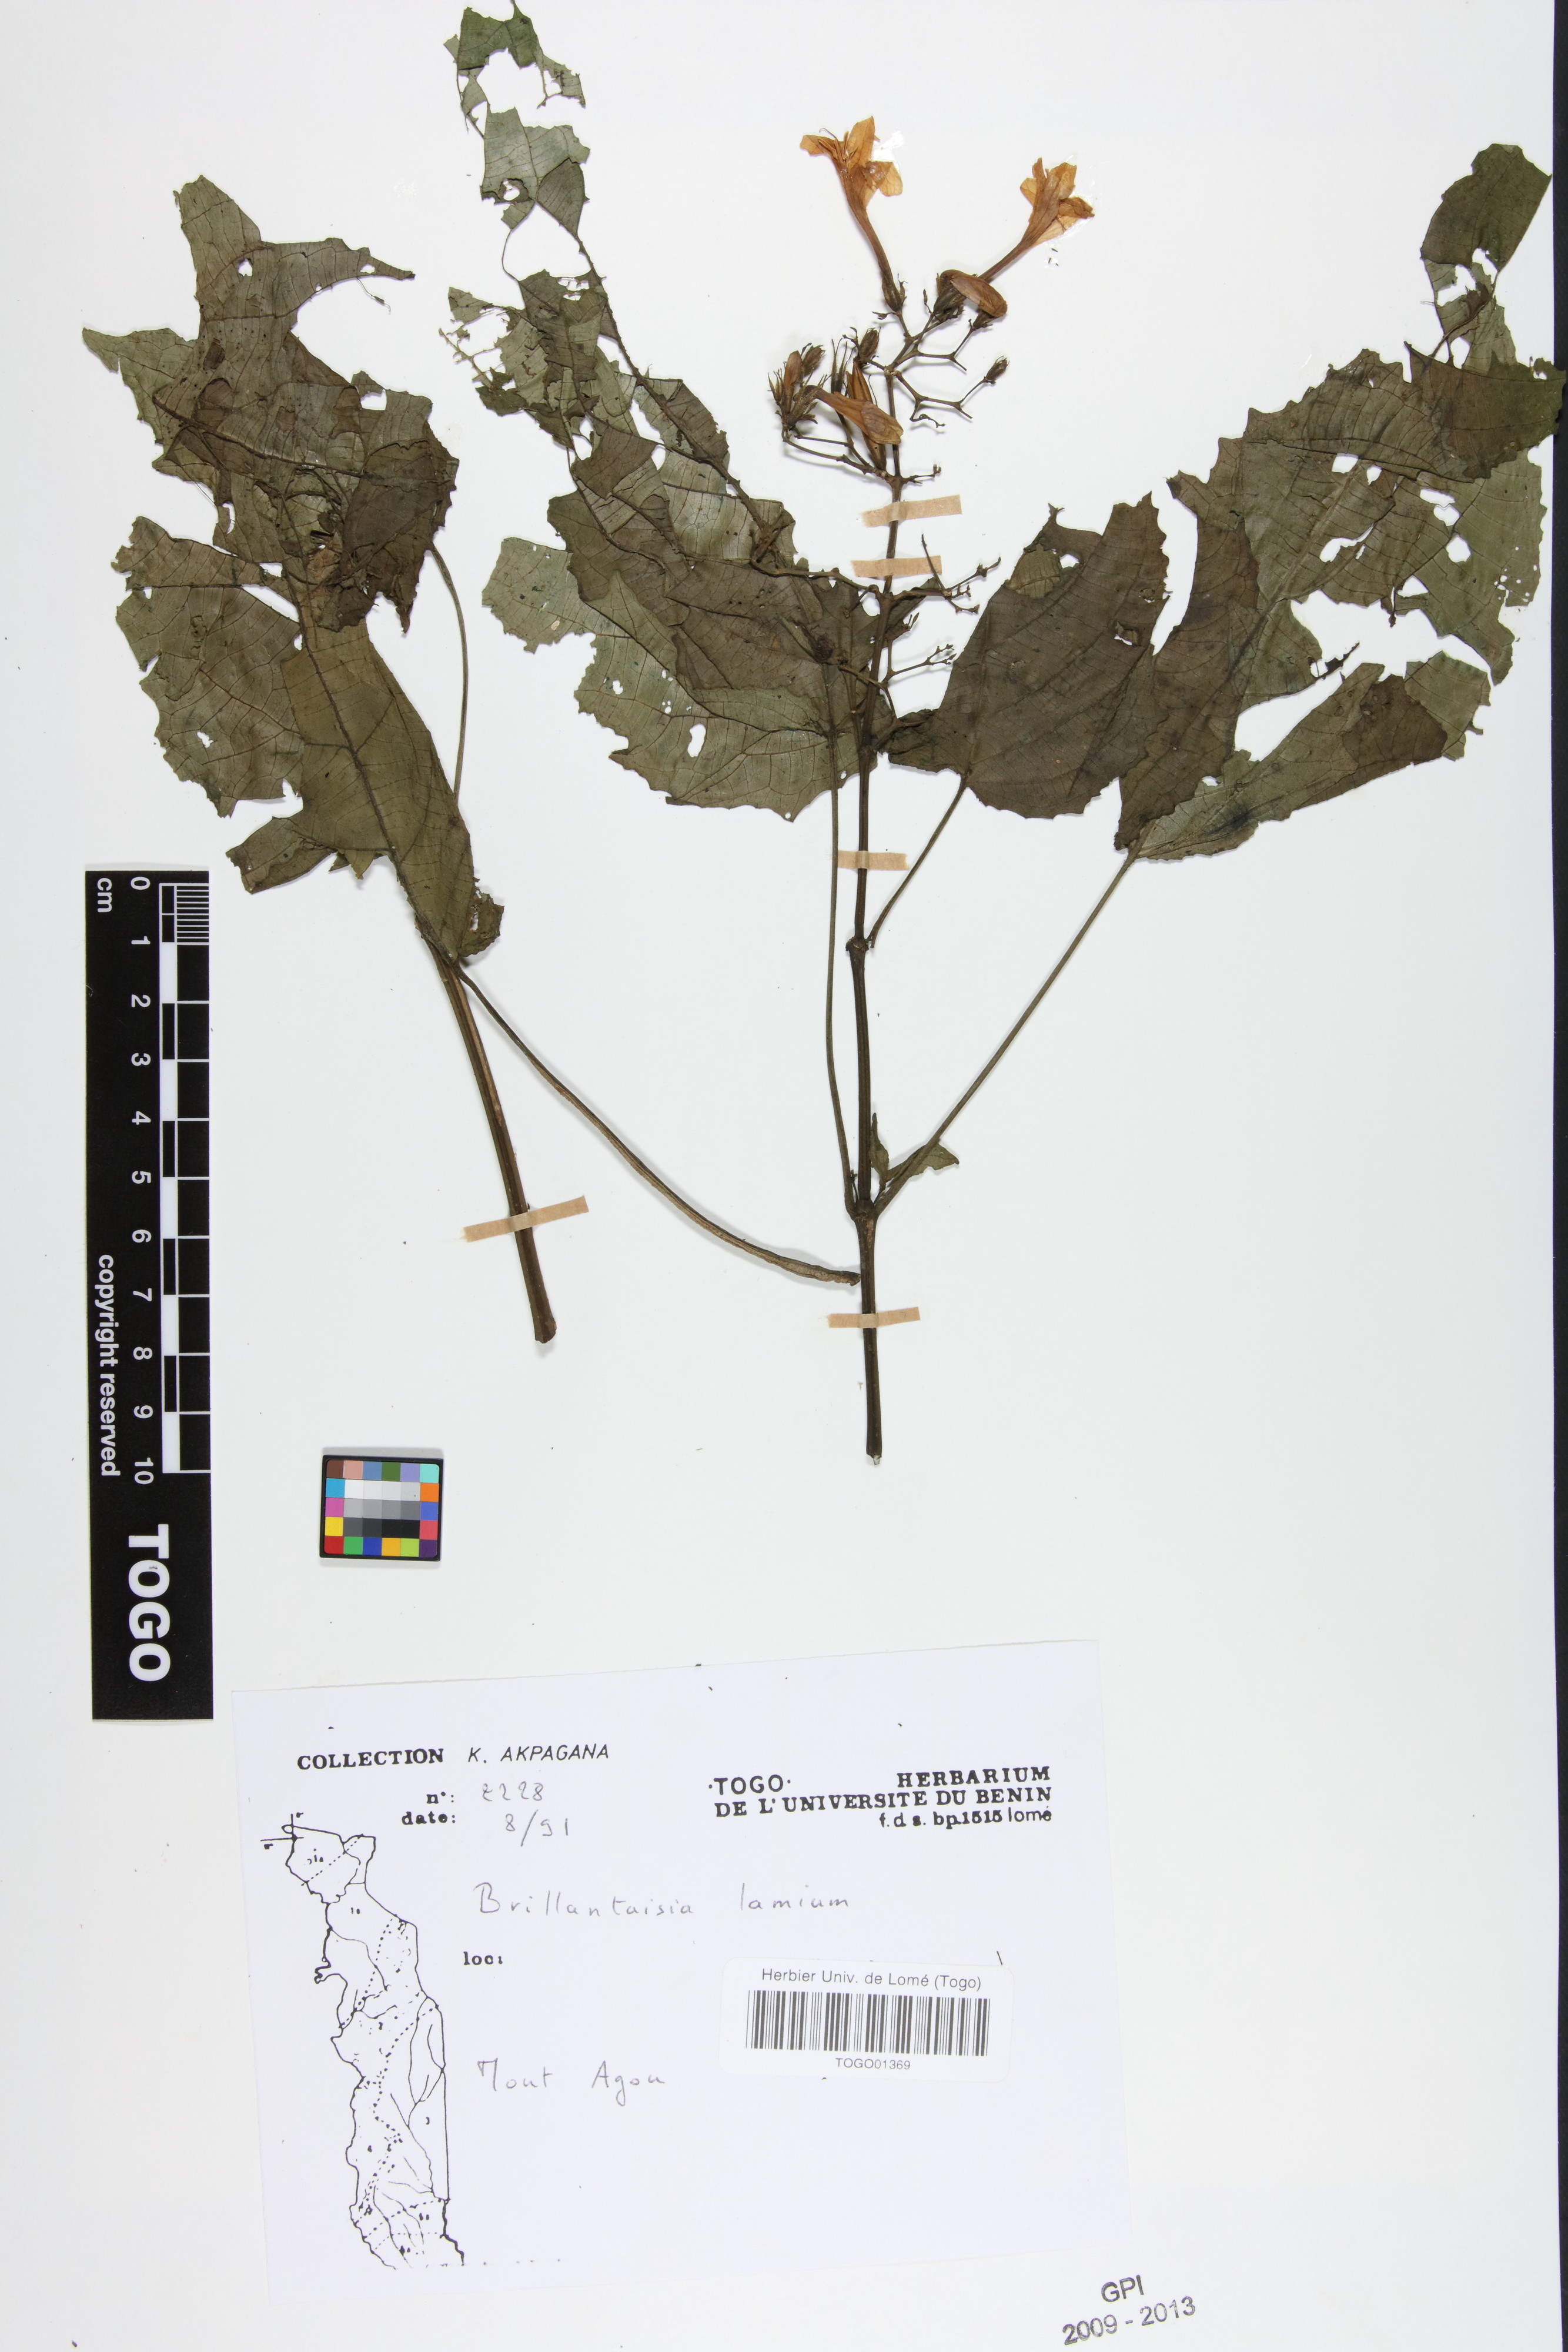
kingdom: Plantae
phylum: Tracheophyta
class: Magnoliopsida
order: Lamiales
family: Acanthaceae
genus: Brillantaisia
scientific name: Brillantaisia lamium
